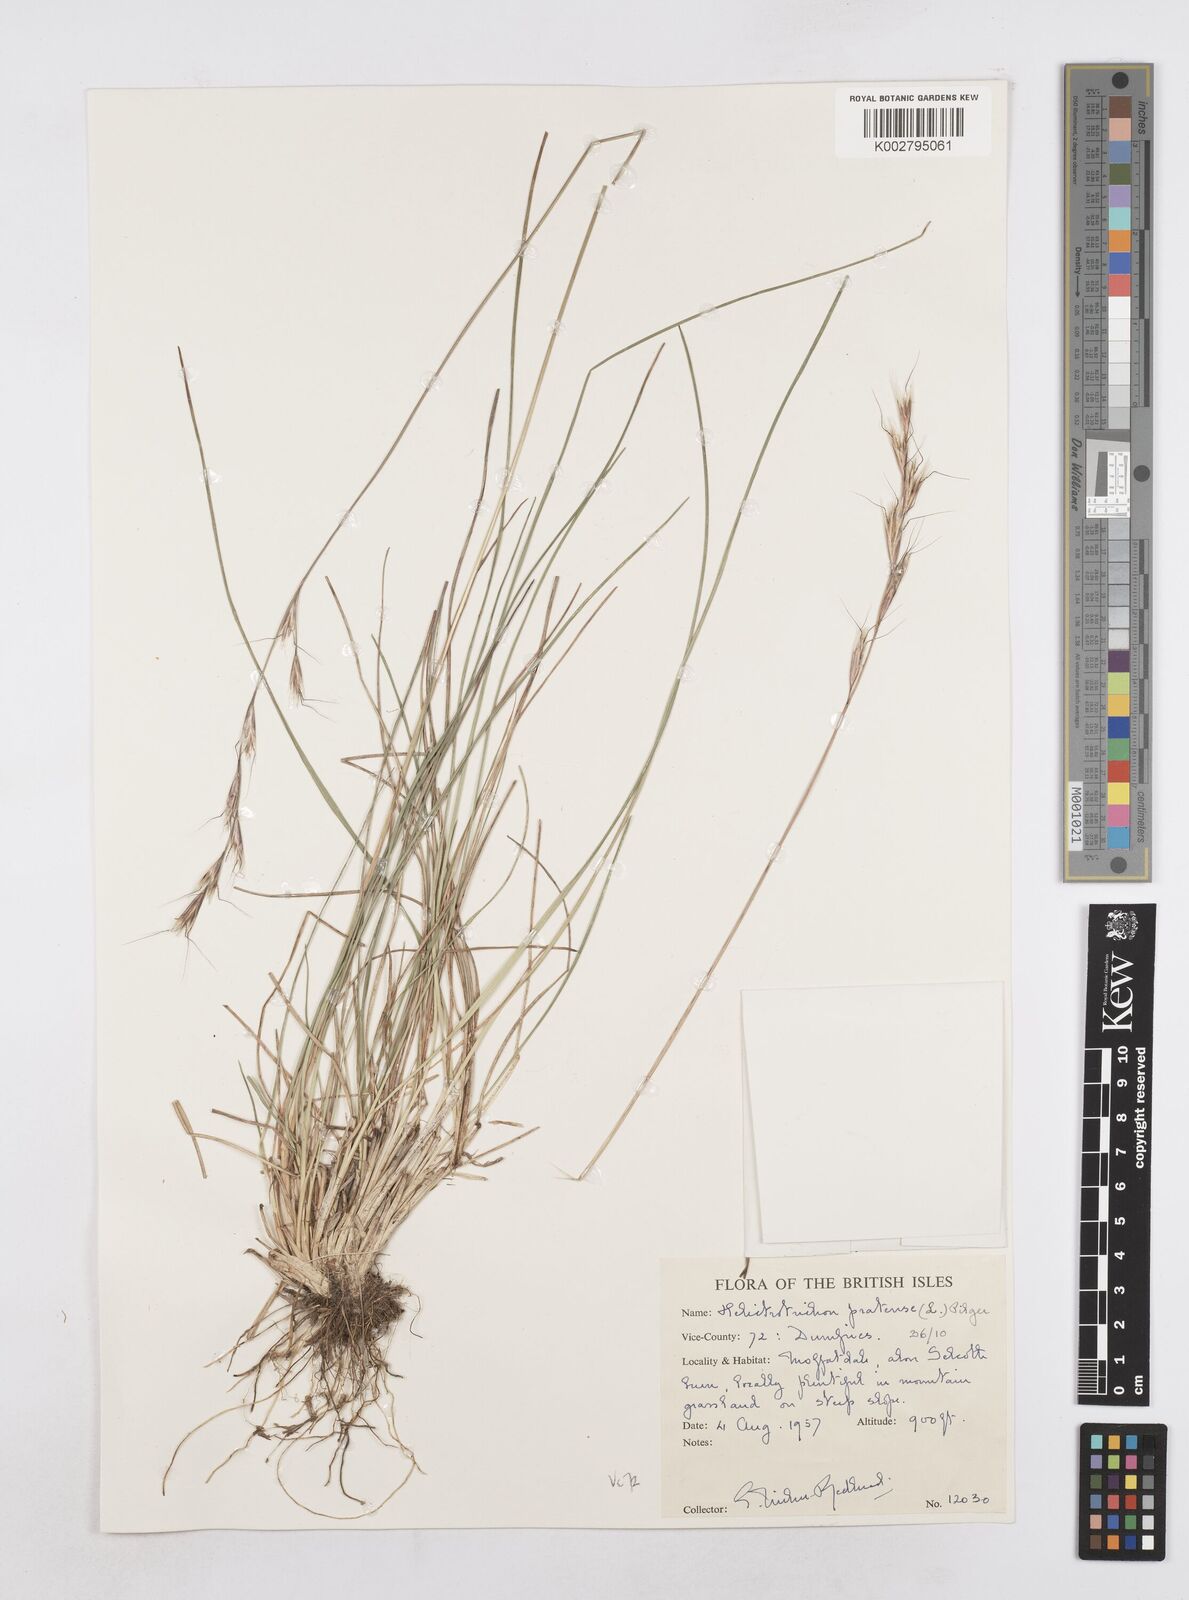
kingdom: Plantae
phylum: Tracheophyta
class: Liliopsida
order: Poales
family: Poaceae
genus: Helictochloa
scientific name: Helictochloa pratensis
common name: Meadow oat grass
